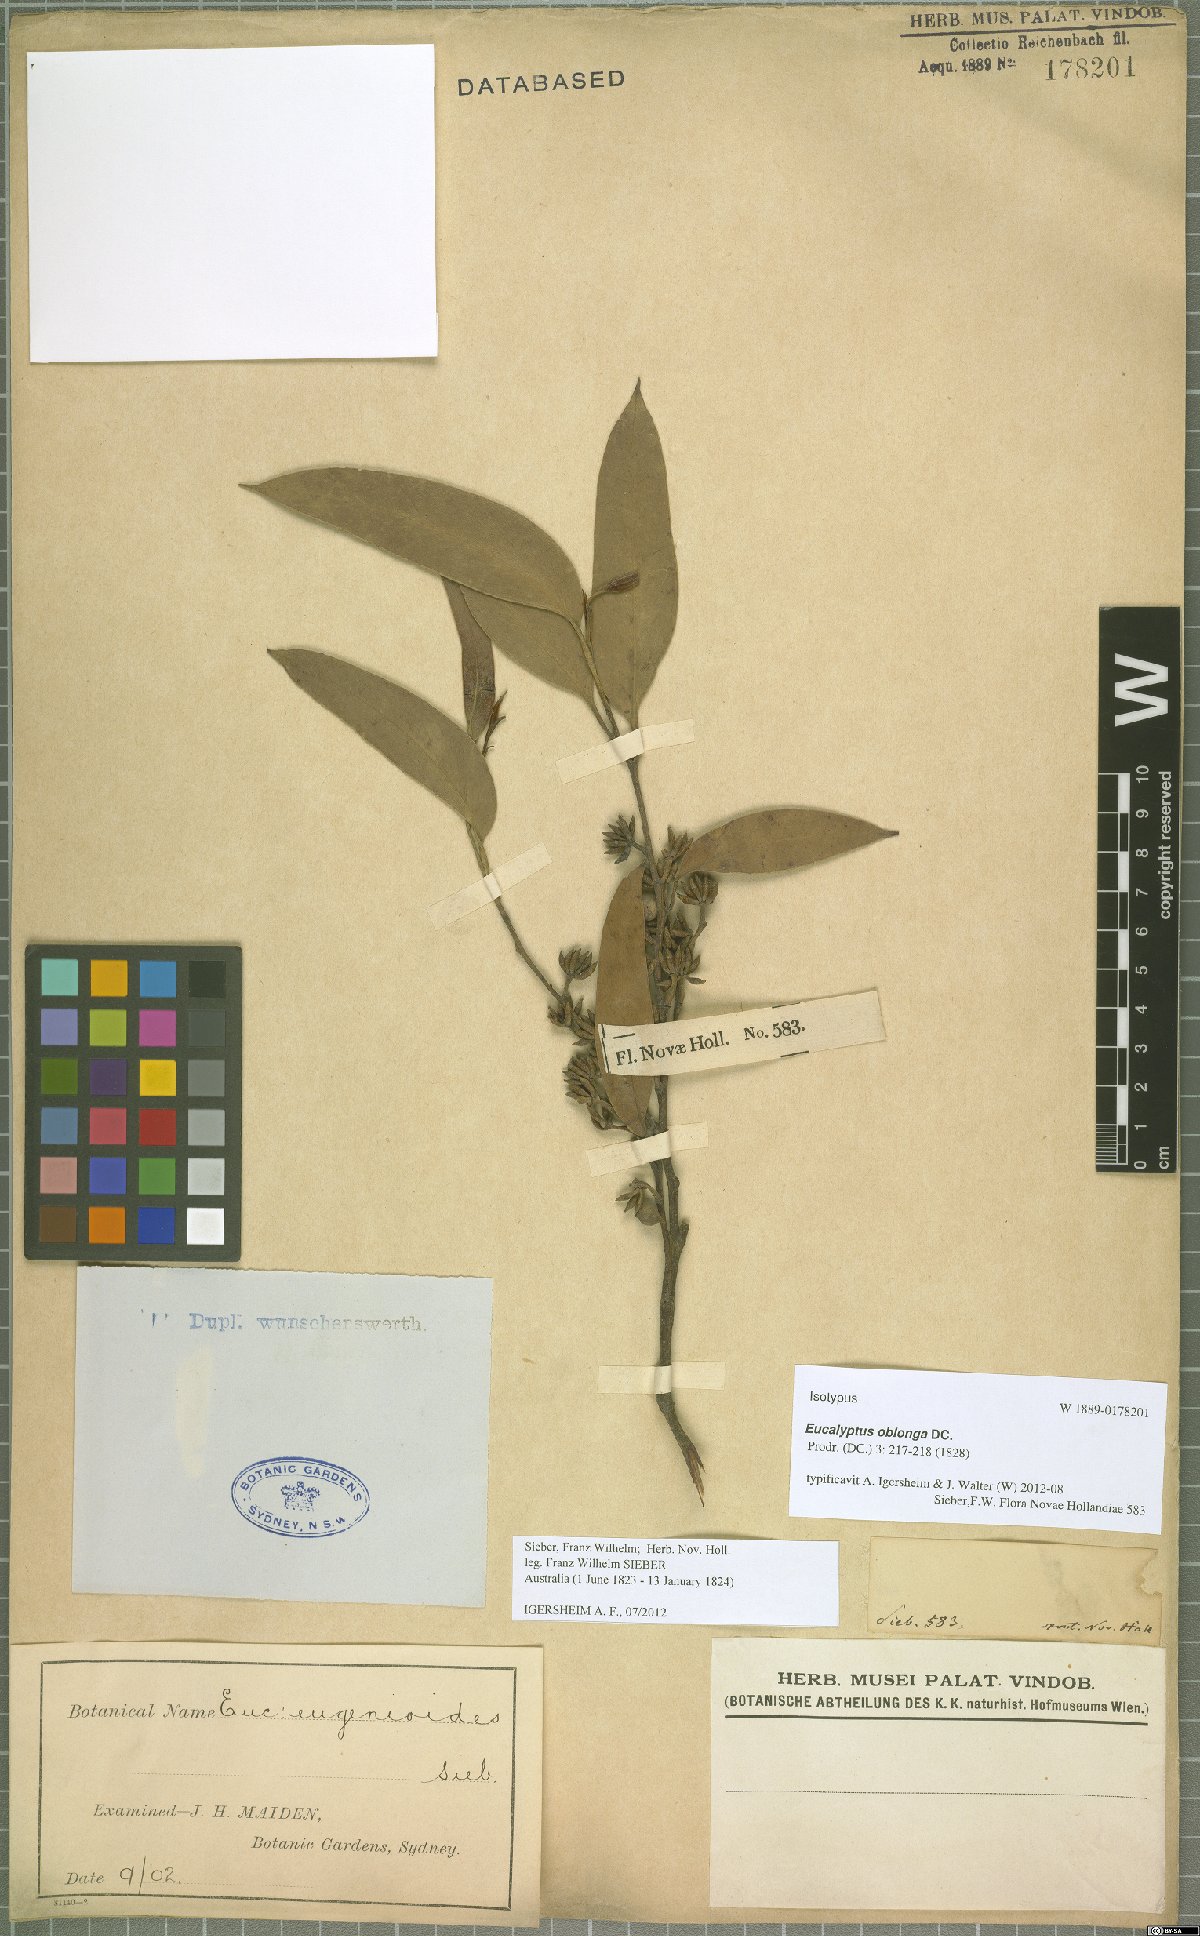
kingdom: Plantae
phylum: Tracheophyta
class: Magnoliopsida
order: Myrtales
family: Myrtaceae
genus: Eucalyptus
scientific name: Eucalyptus oblonga
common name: Narrow-leaf stringybark
